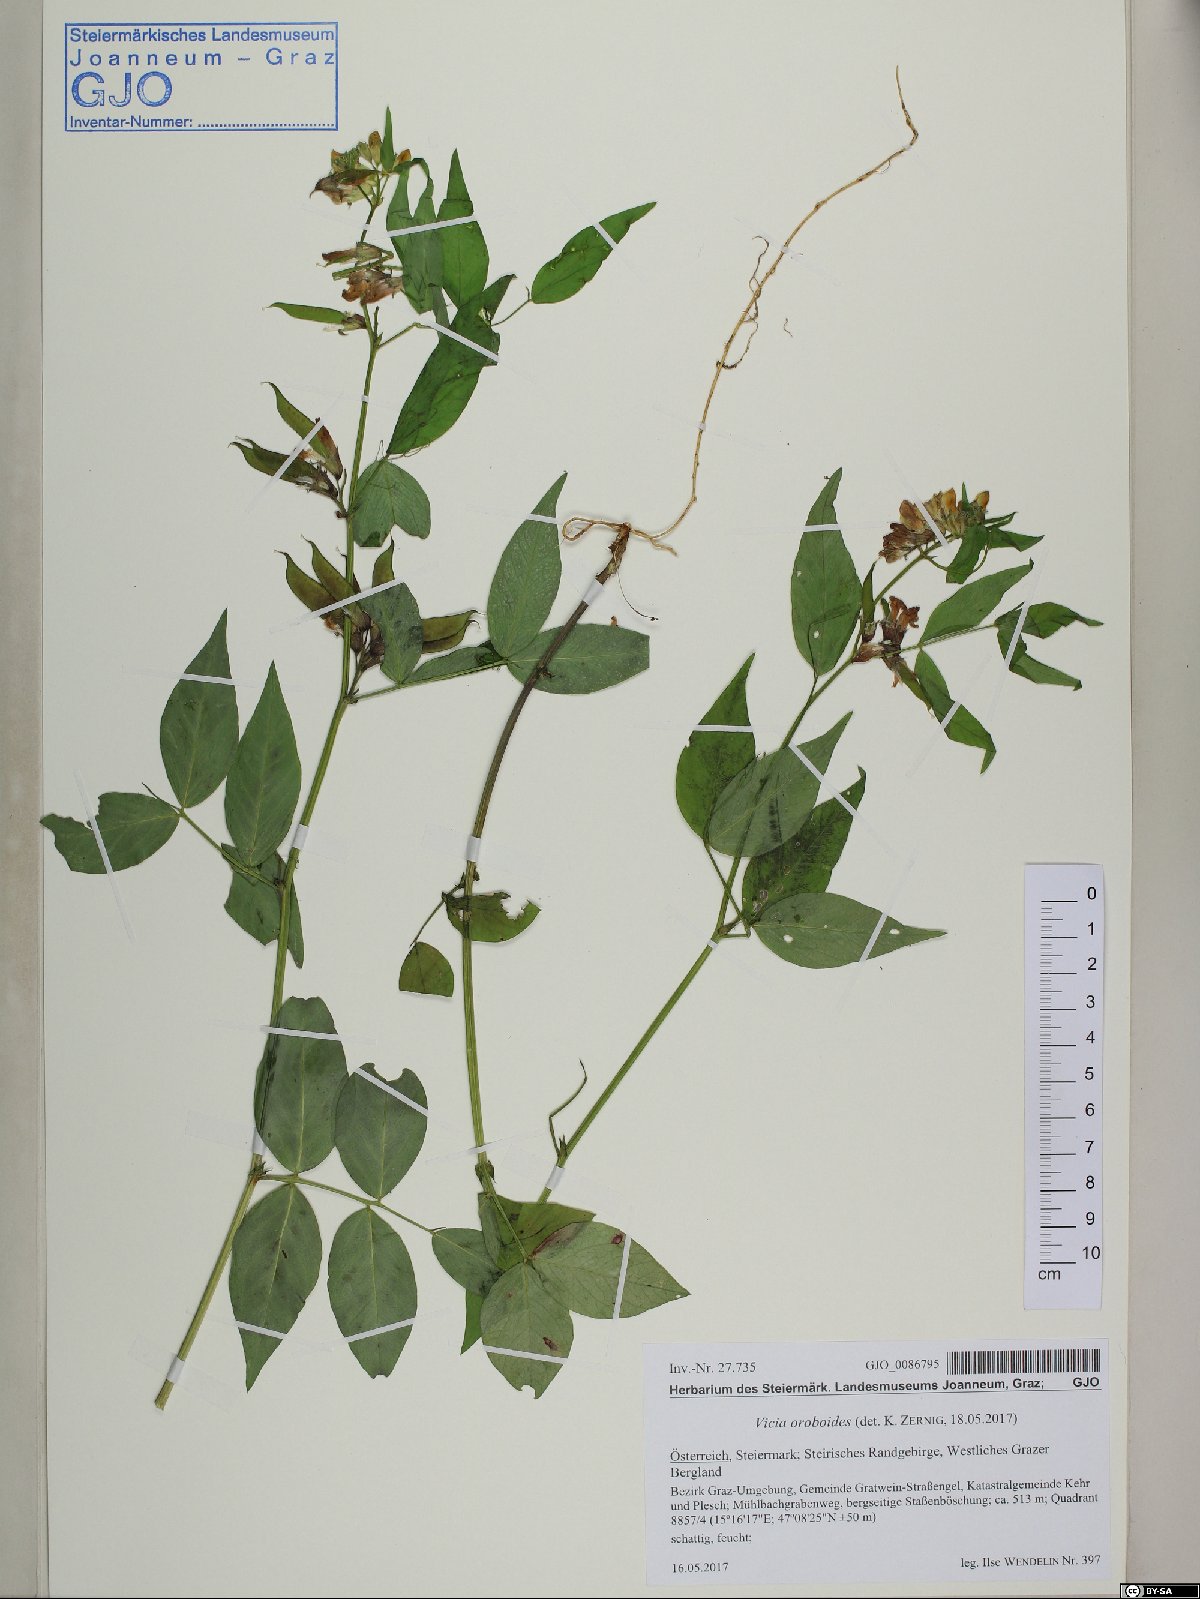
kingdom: Plantae
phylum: Tracheophyta
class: Magnoliopsida
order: Fabales
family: Fabaceae
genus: Vicia
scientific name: Vicia oroboides
